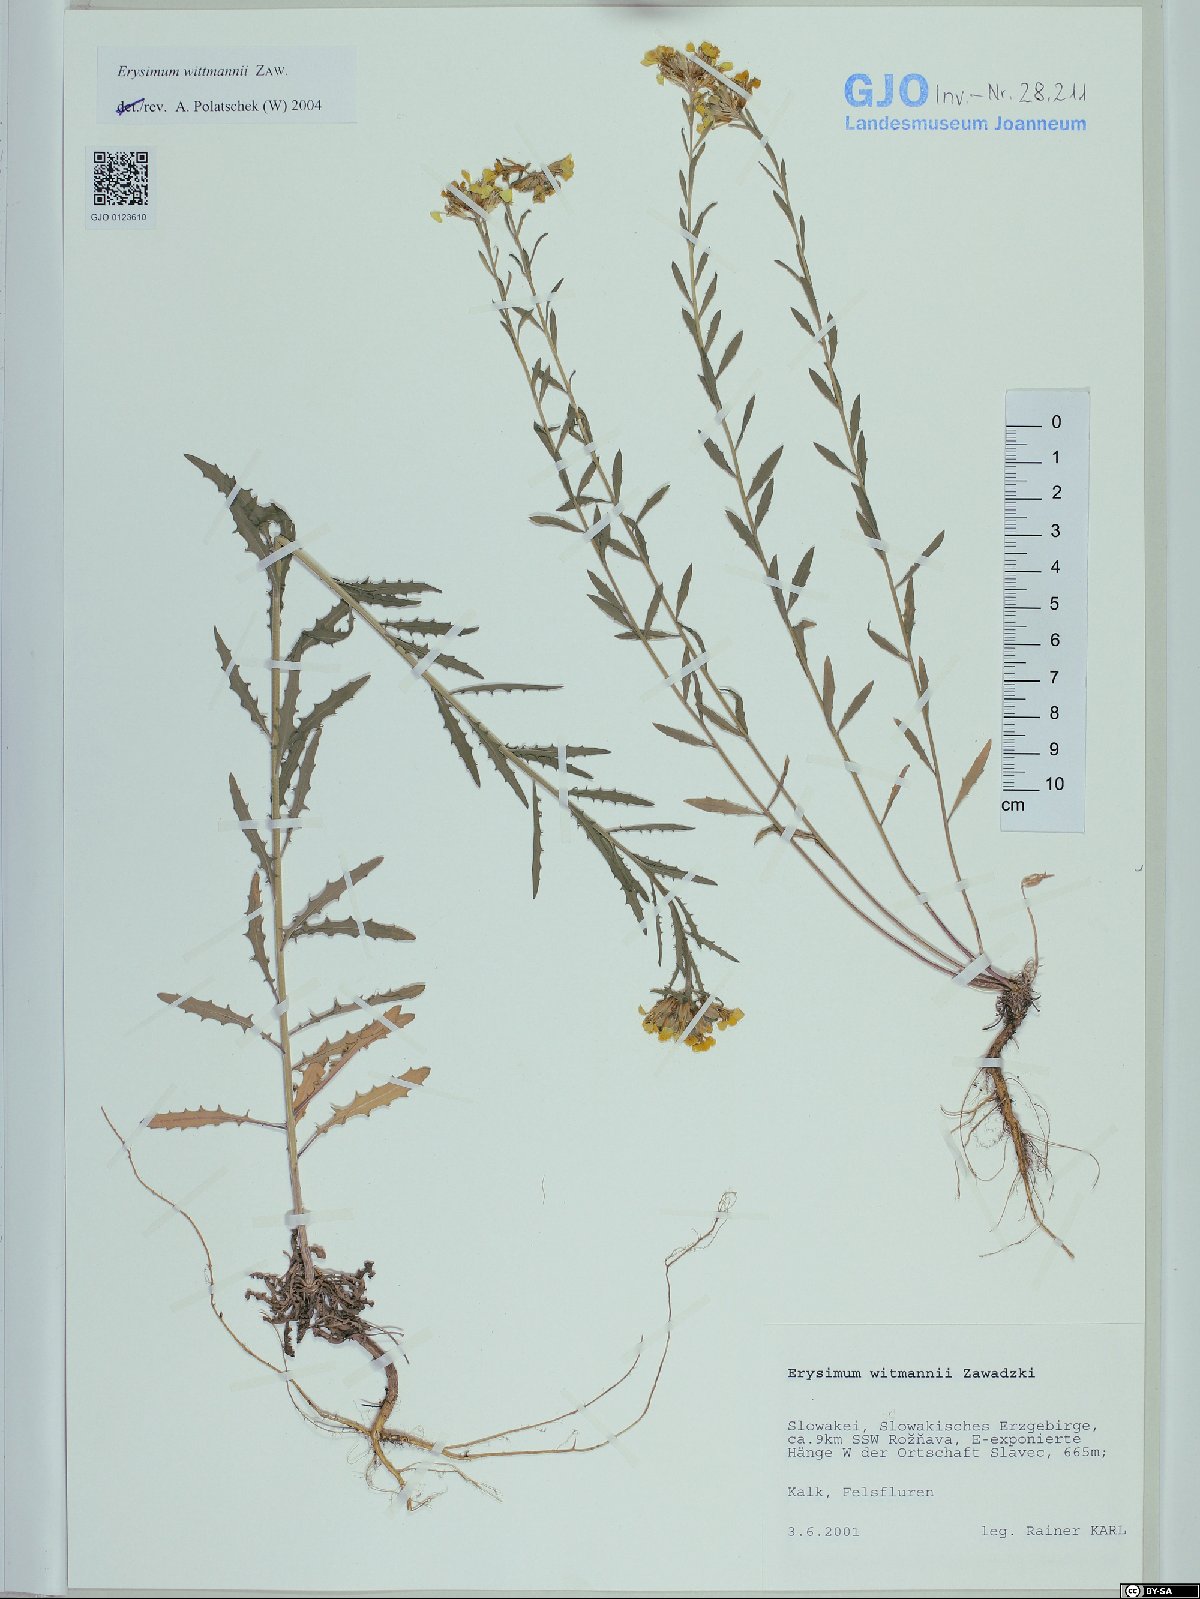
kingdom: Plantae
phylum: Tracheophyta
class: Magnoliopsida
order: Brassicales
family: Brassicaceae
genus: Erysimum
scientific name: Erysimum witmannii
